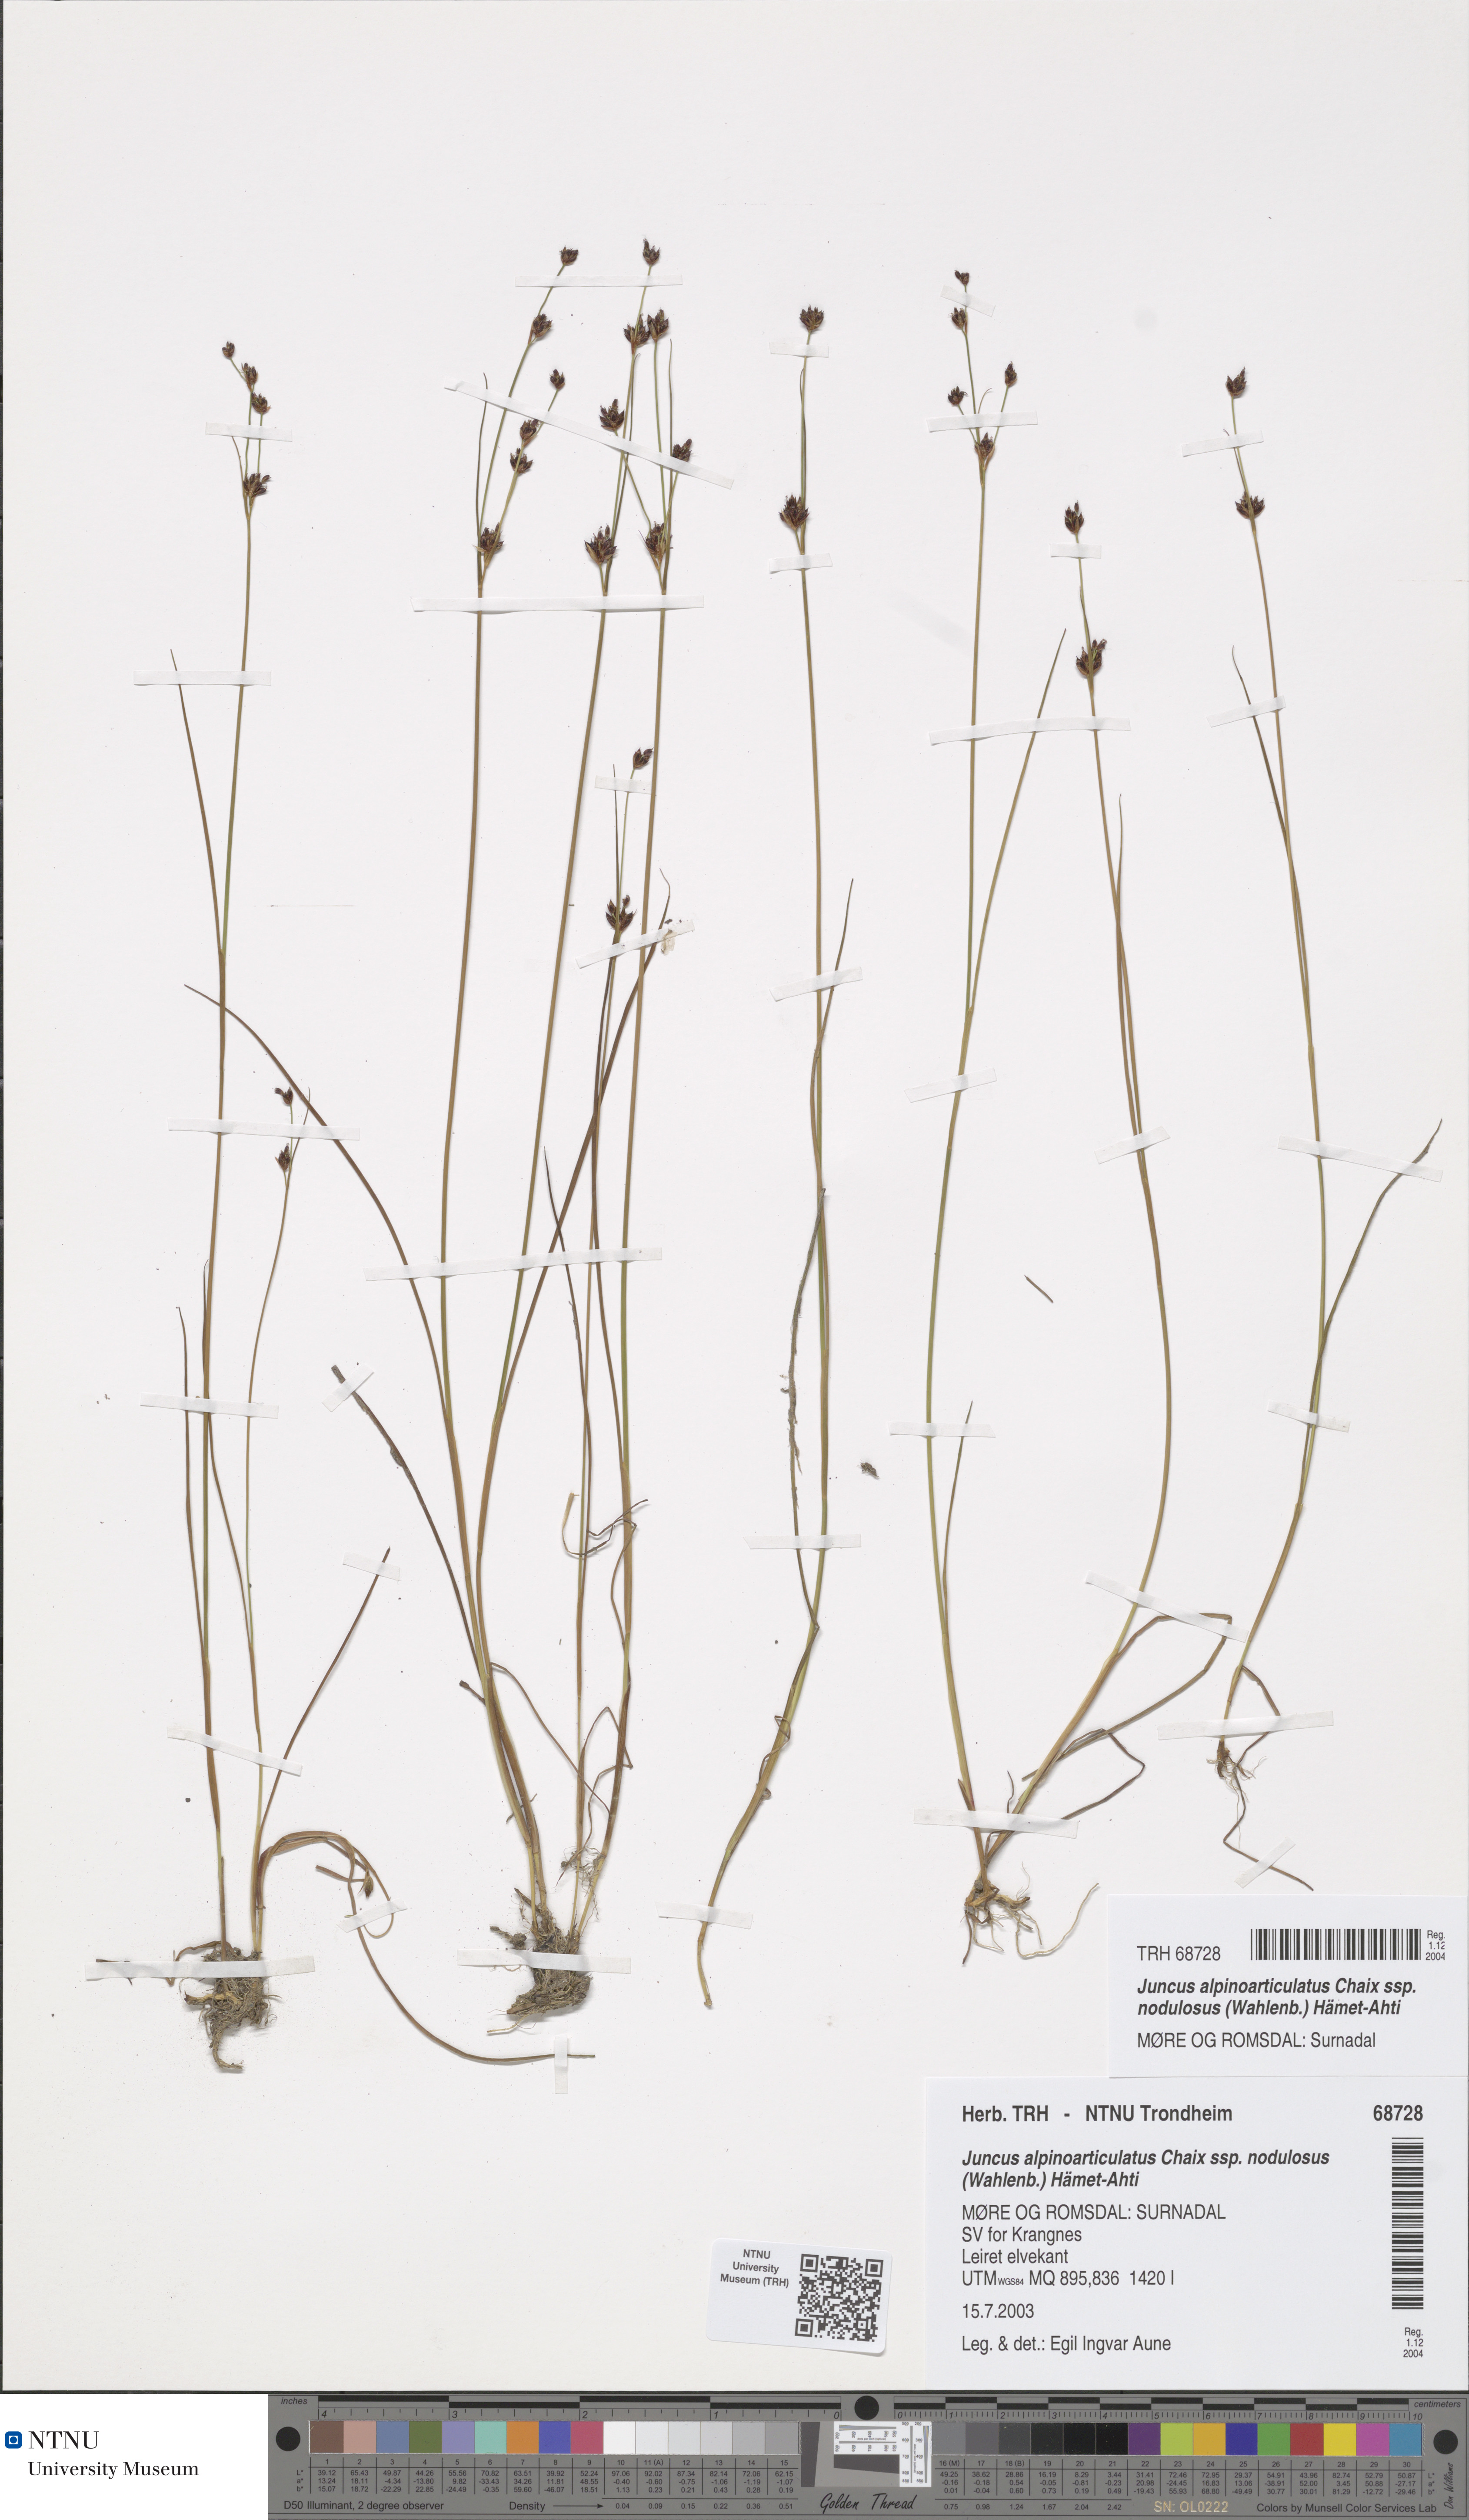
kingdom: Plantae
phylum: Tracheophyta
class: Liliopsida
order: Poales
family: Juncaceae
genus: Juncus
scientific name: Juncus alpinoarticulatus
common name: Alpine rush
